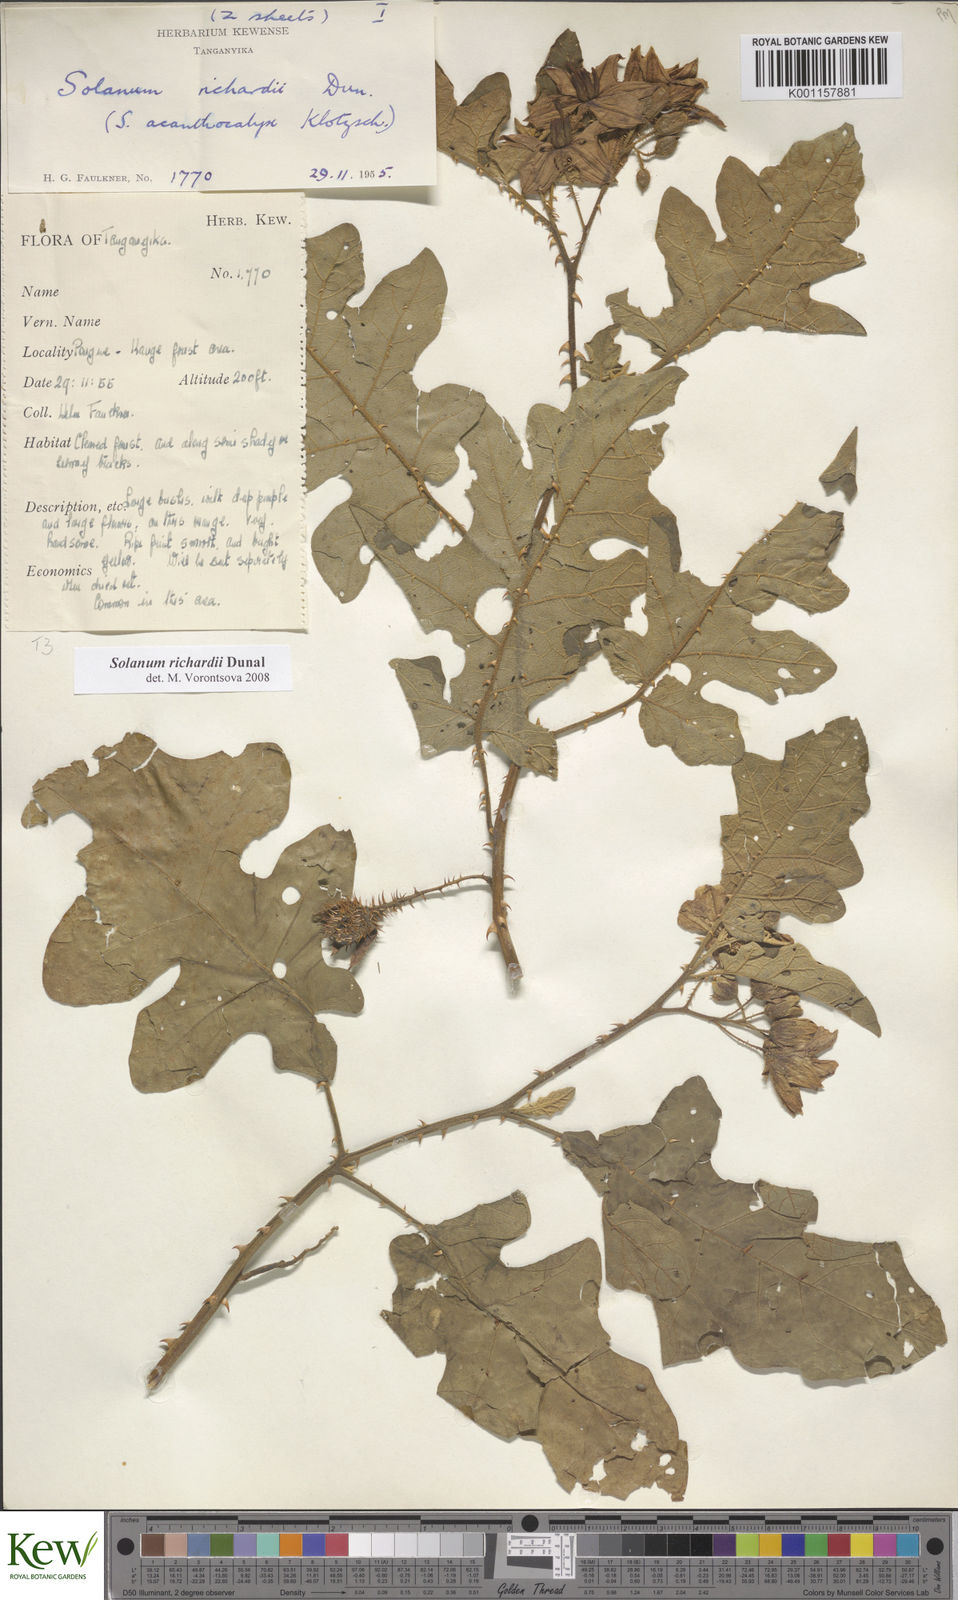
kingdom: Plantae
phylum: Tracheophyta
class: Magnoliopsida
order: Solanales
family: Solanaceae
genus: Solanum
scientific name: Solanum richardii
